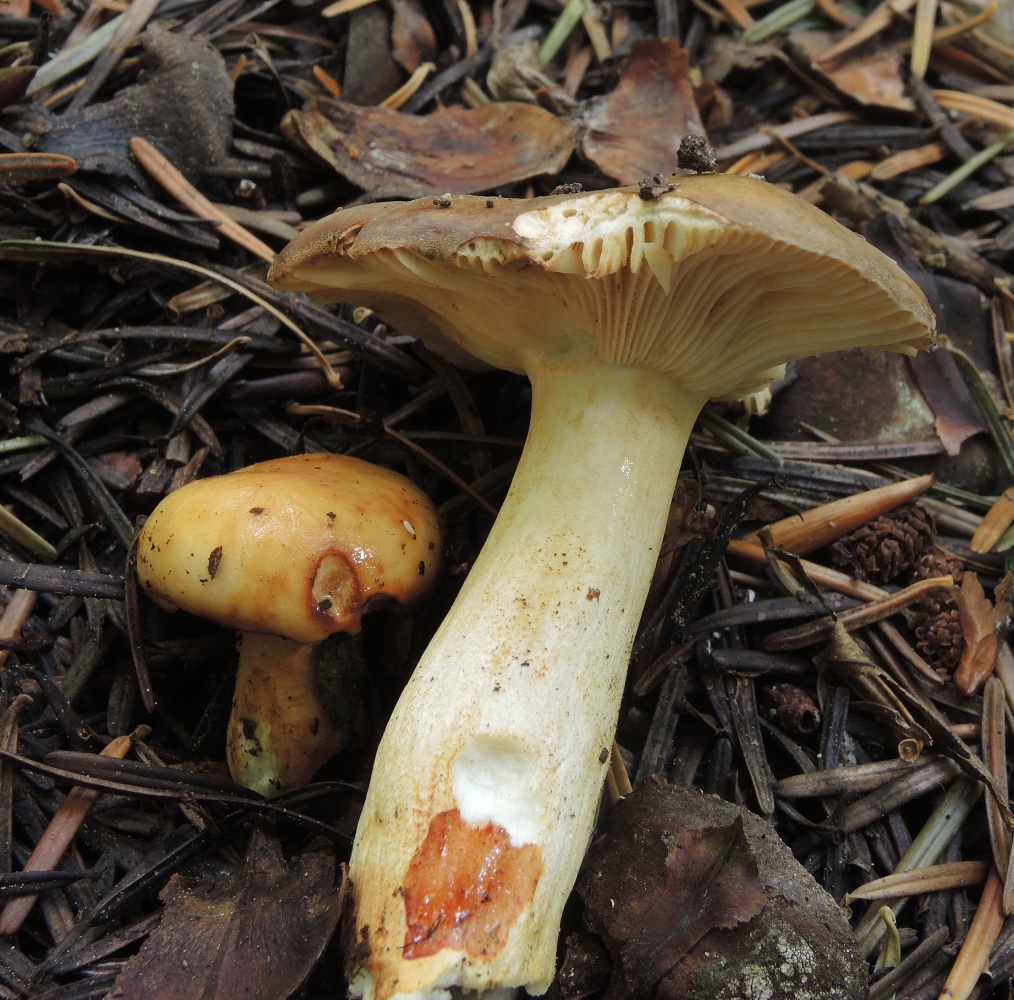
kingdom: Fungi
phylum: Basidiomycota
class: Agaricomycetes
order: Russulales
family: Russulaceae
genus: Russula
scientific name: Russula viscida
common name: knippe-skørhat
